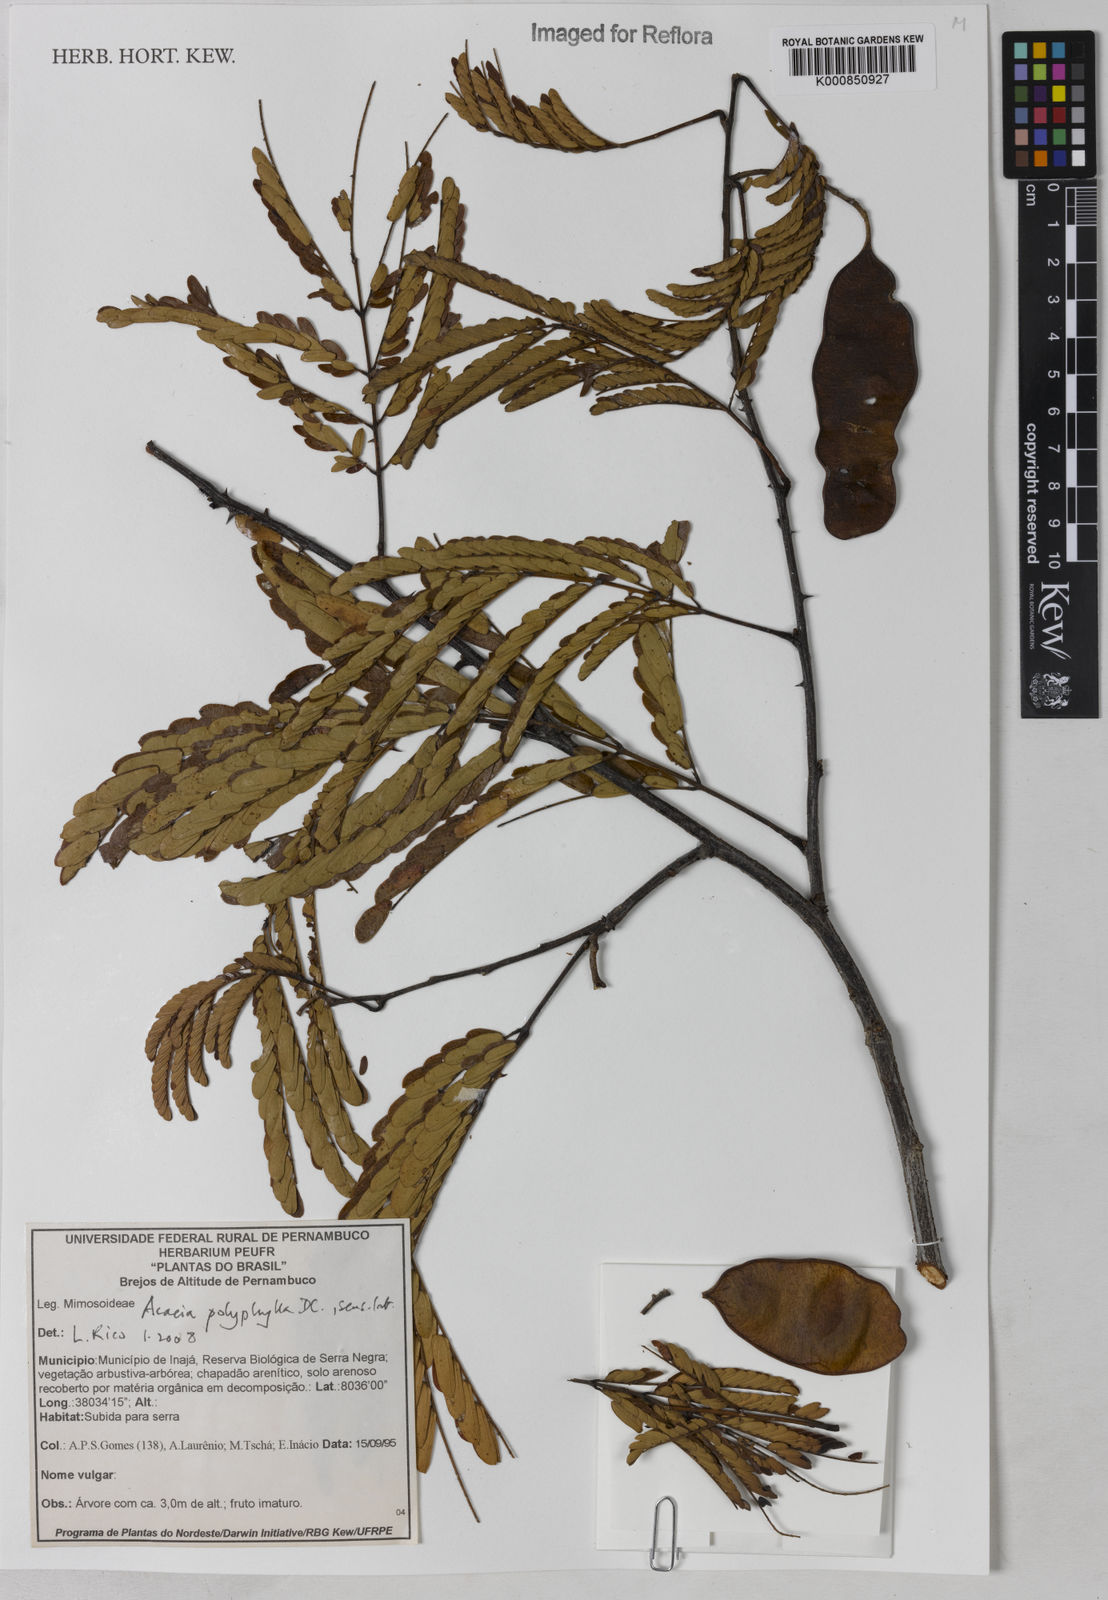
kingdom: Plantae
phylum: Tracheophyta
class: Magnoliopsida
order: Fabales
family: Fabaceae
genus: Senegalia
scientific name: Senegalia polyphylla
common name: White-tamarind
